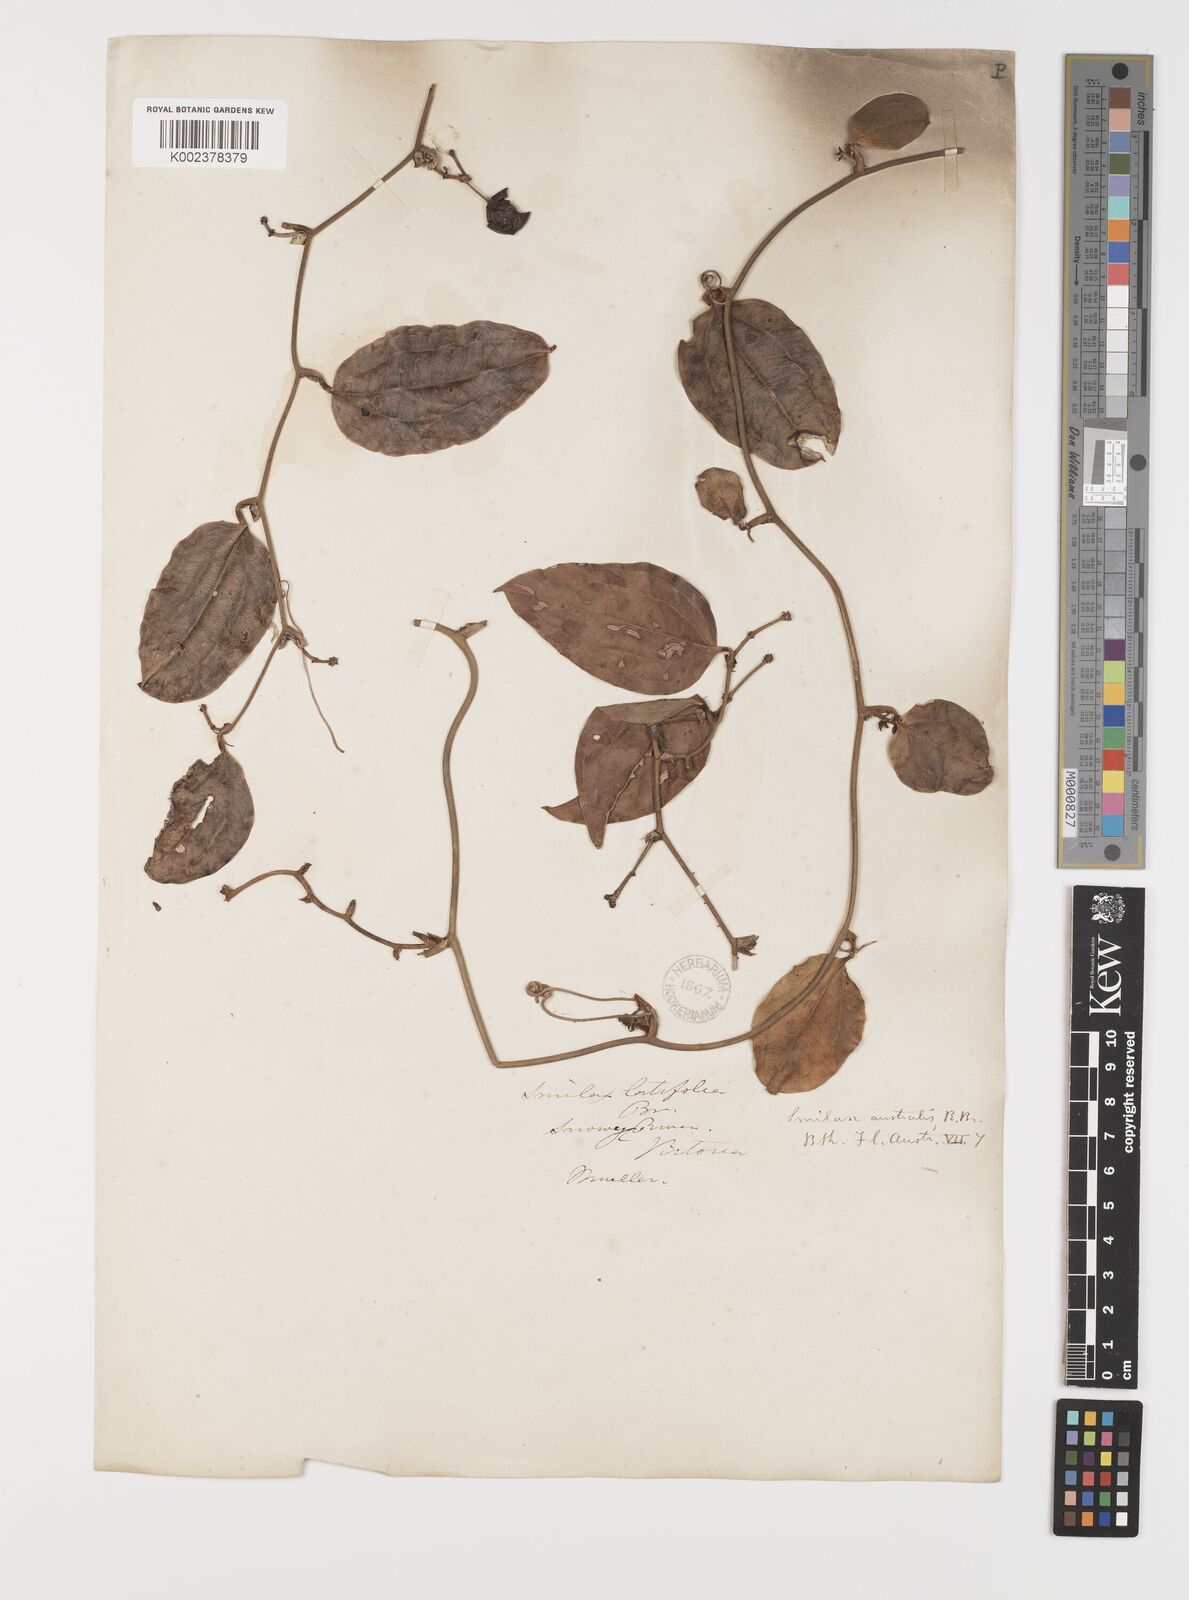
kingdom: Plantae
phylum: Tracheophyta
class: Liliopsida
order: Liliales
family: Smilacaceae
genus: Smilax
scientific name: Smilax australis
